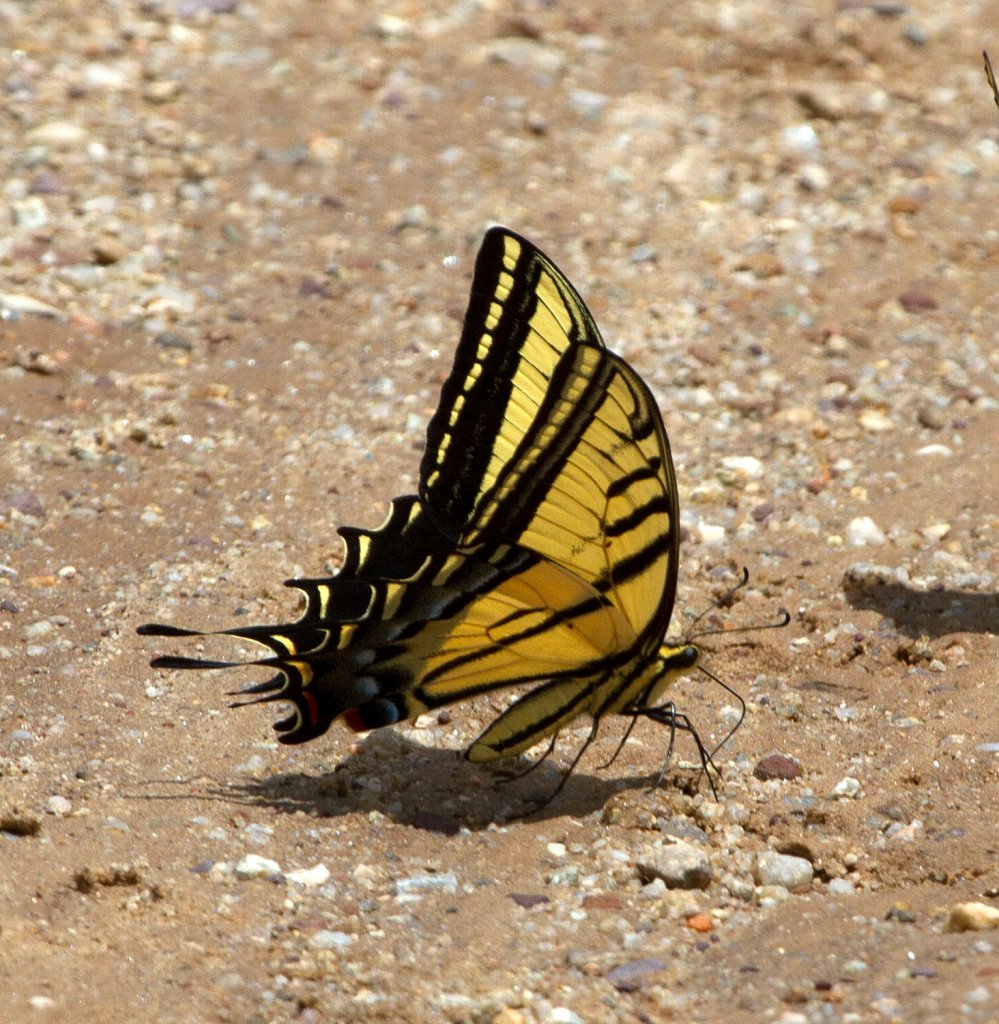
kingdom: Animalia
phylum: Arthropoda
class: Insecta
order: Lepidoptera
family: Papilionidae
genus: Papilio
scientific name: Papilio multicaudata
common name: Two-tailed Swallowtail
